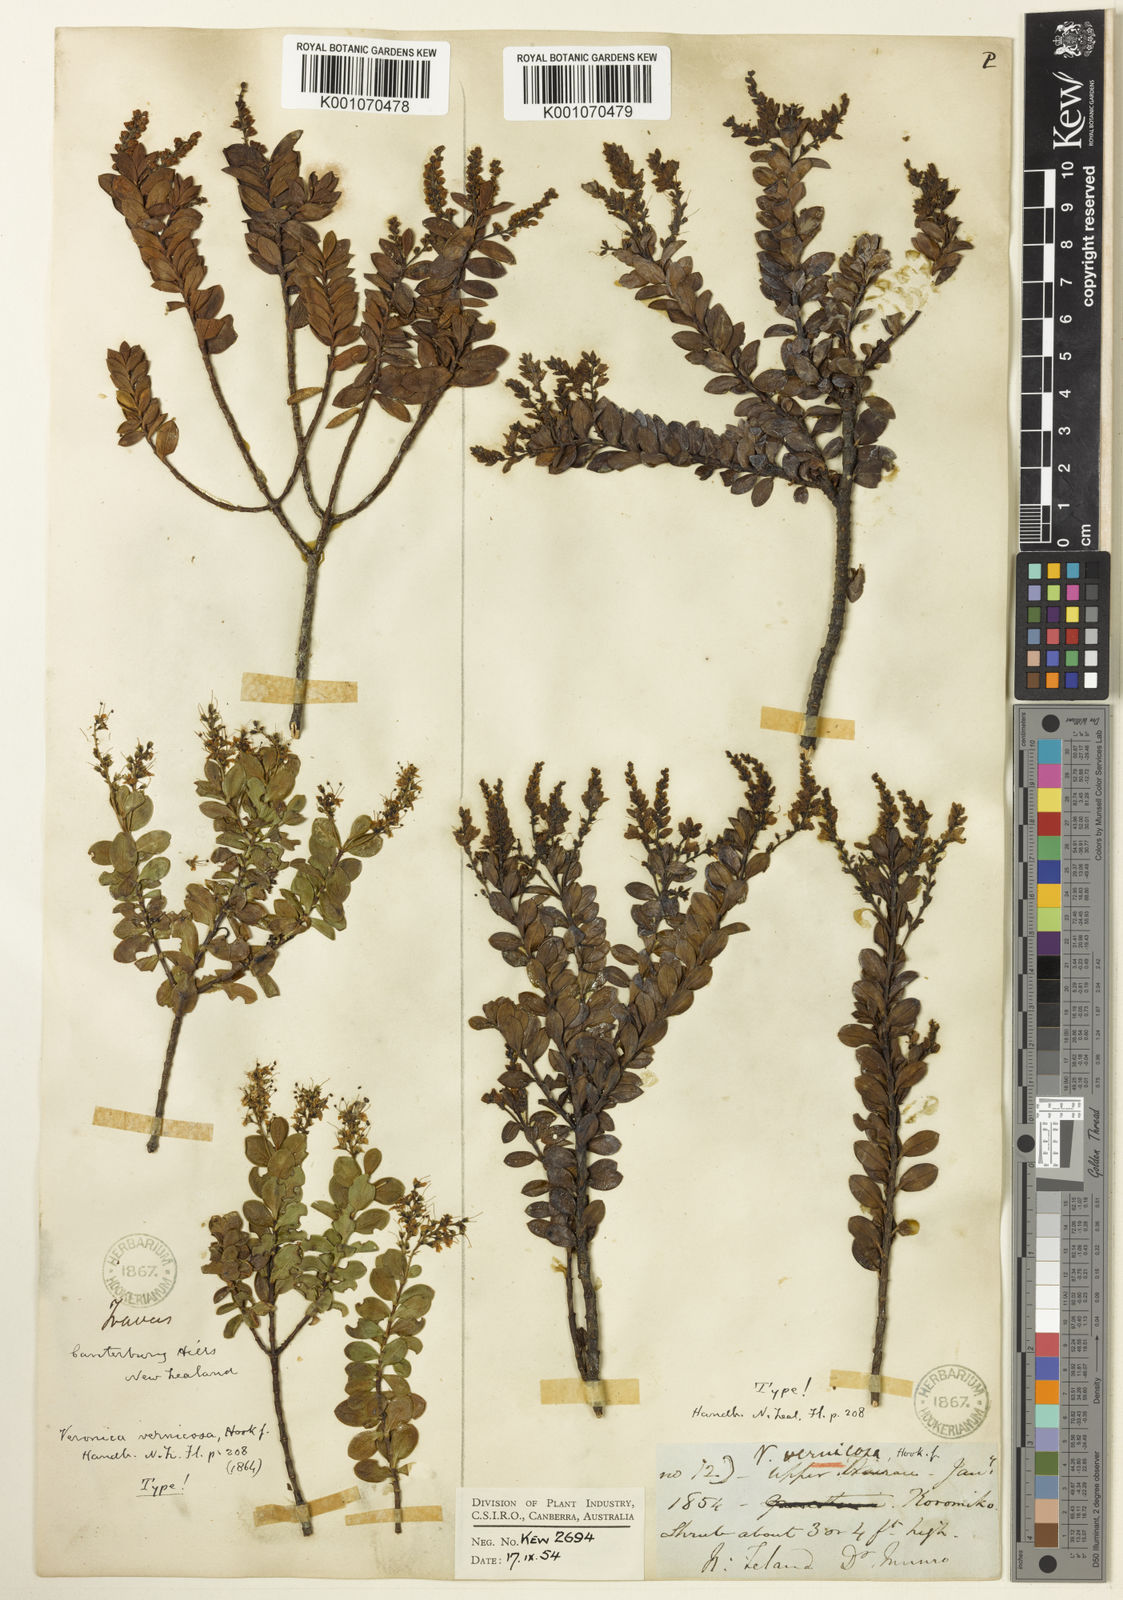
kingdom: Plantae
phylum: Tracheophyta
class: Magnoliopsida
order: Lamiales
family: Plantaginaceae
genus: Veronica
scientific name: Veronica vernicosa
